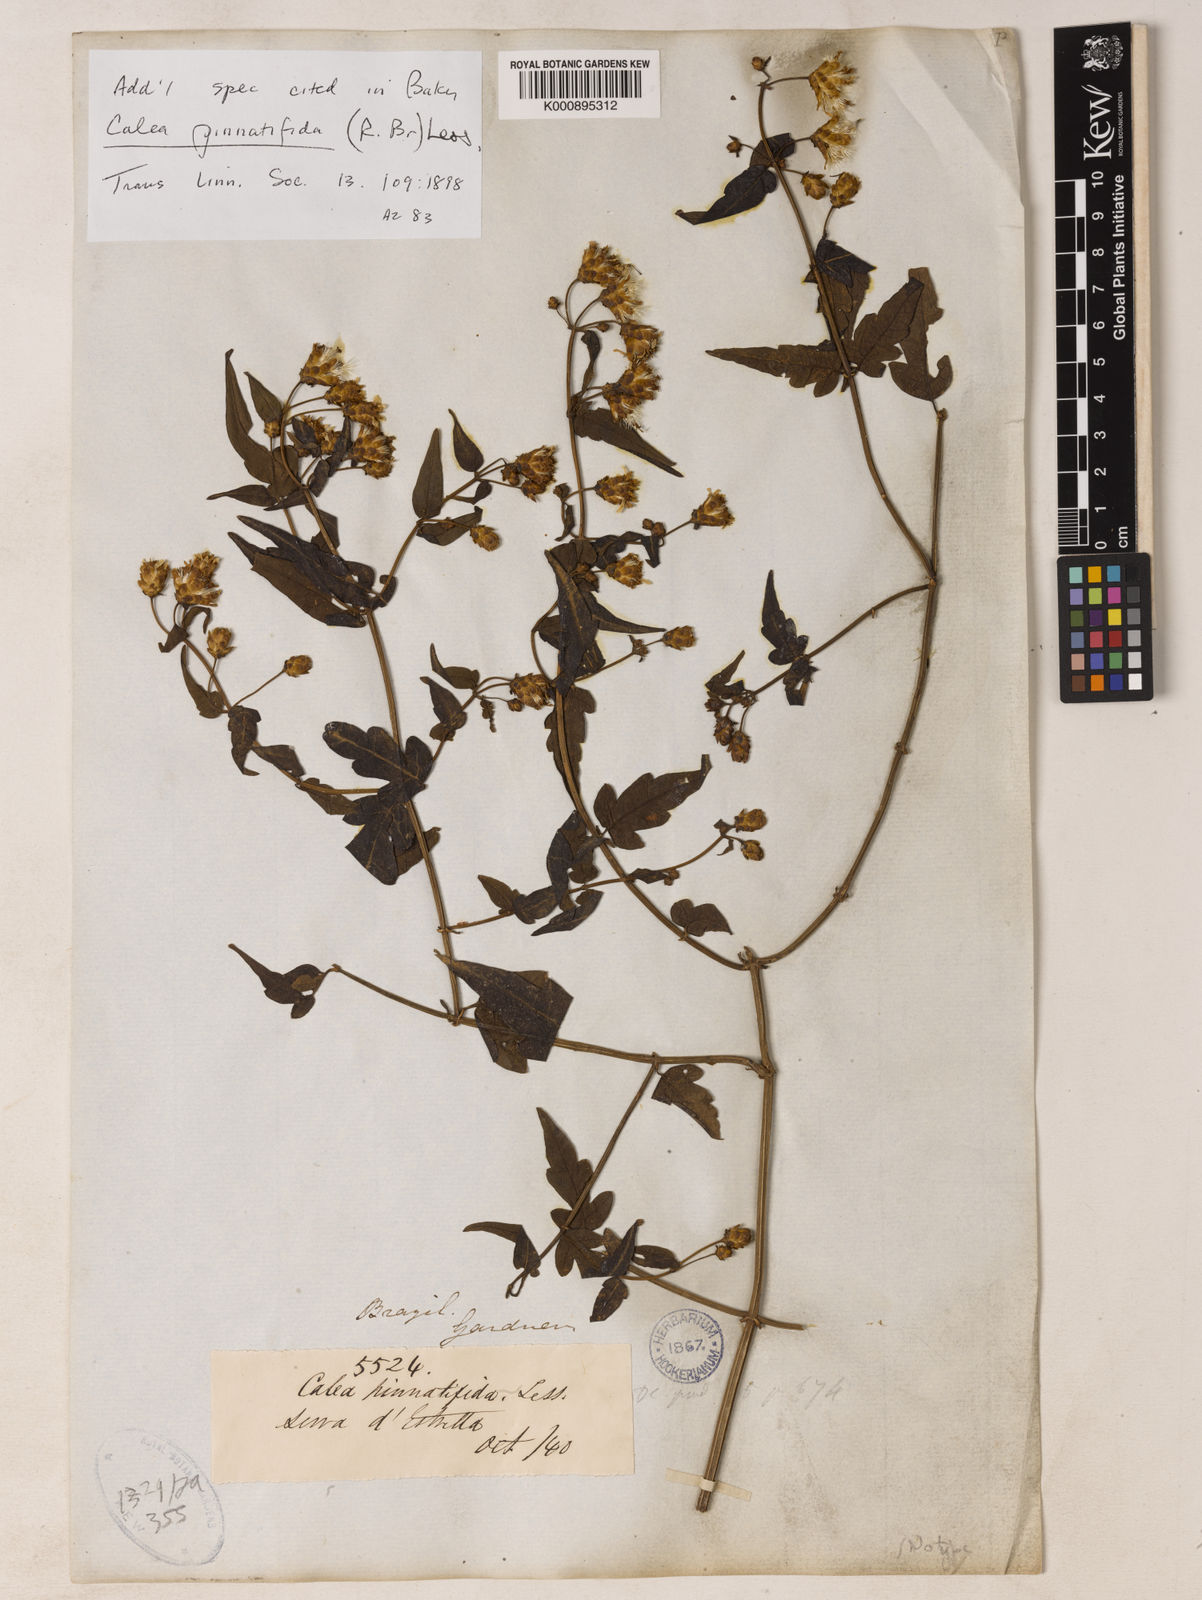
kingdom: Plantae
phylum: Tracheophyta
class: Magnoliopsida
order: Asterales
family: Asteraceae
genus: Calea
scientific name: Calea
